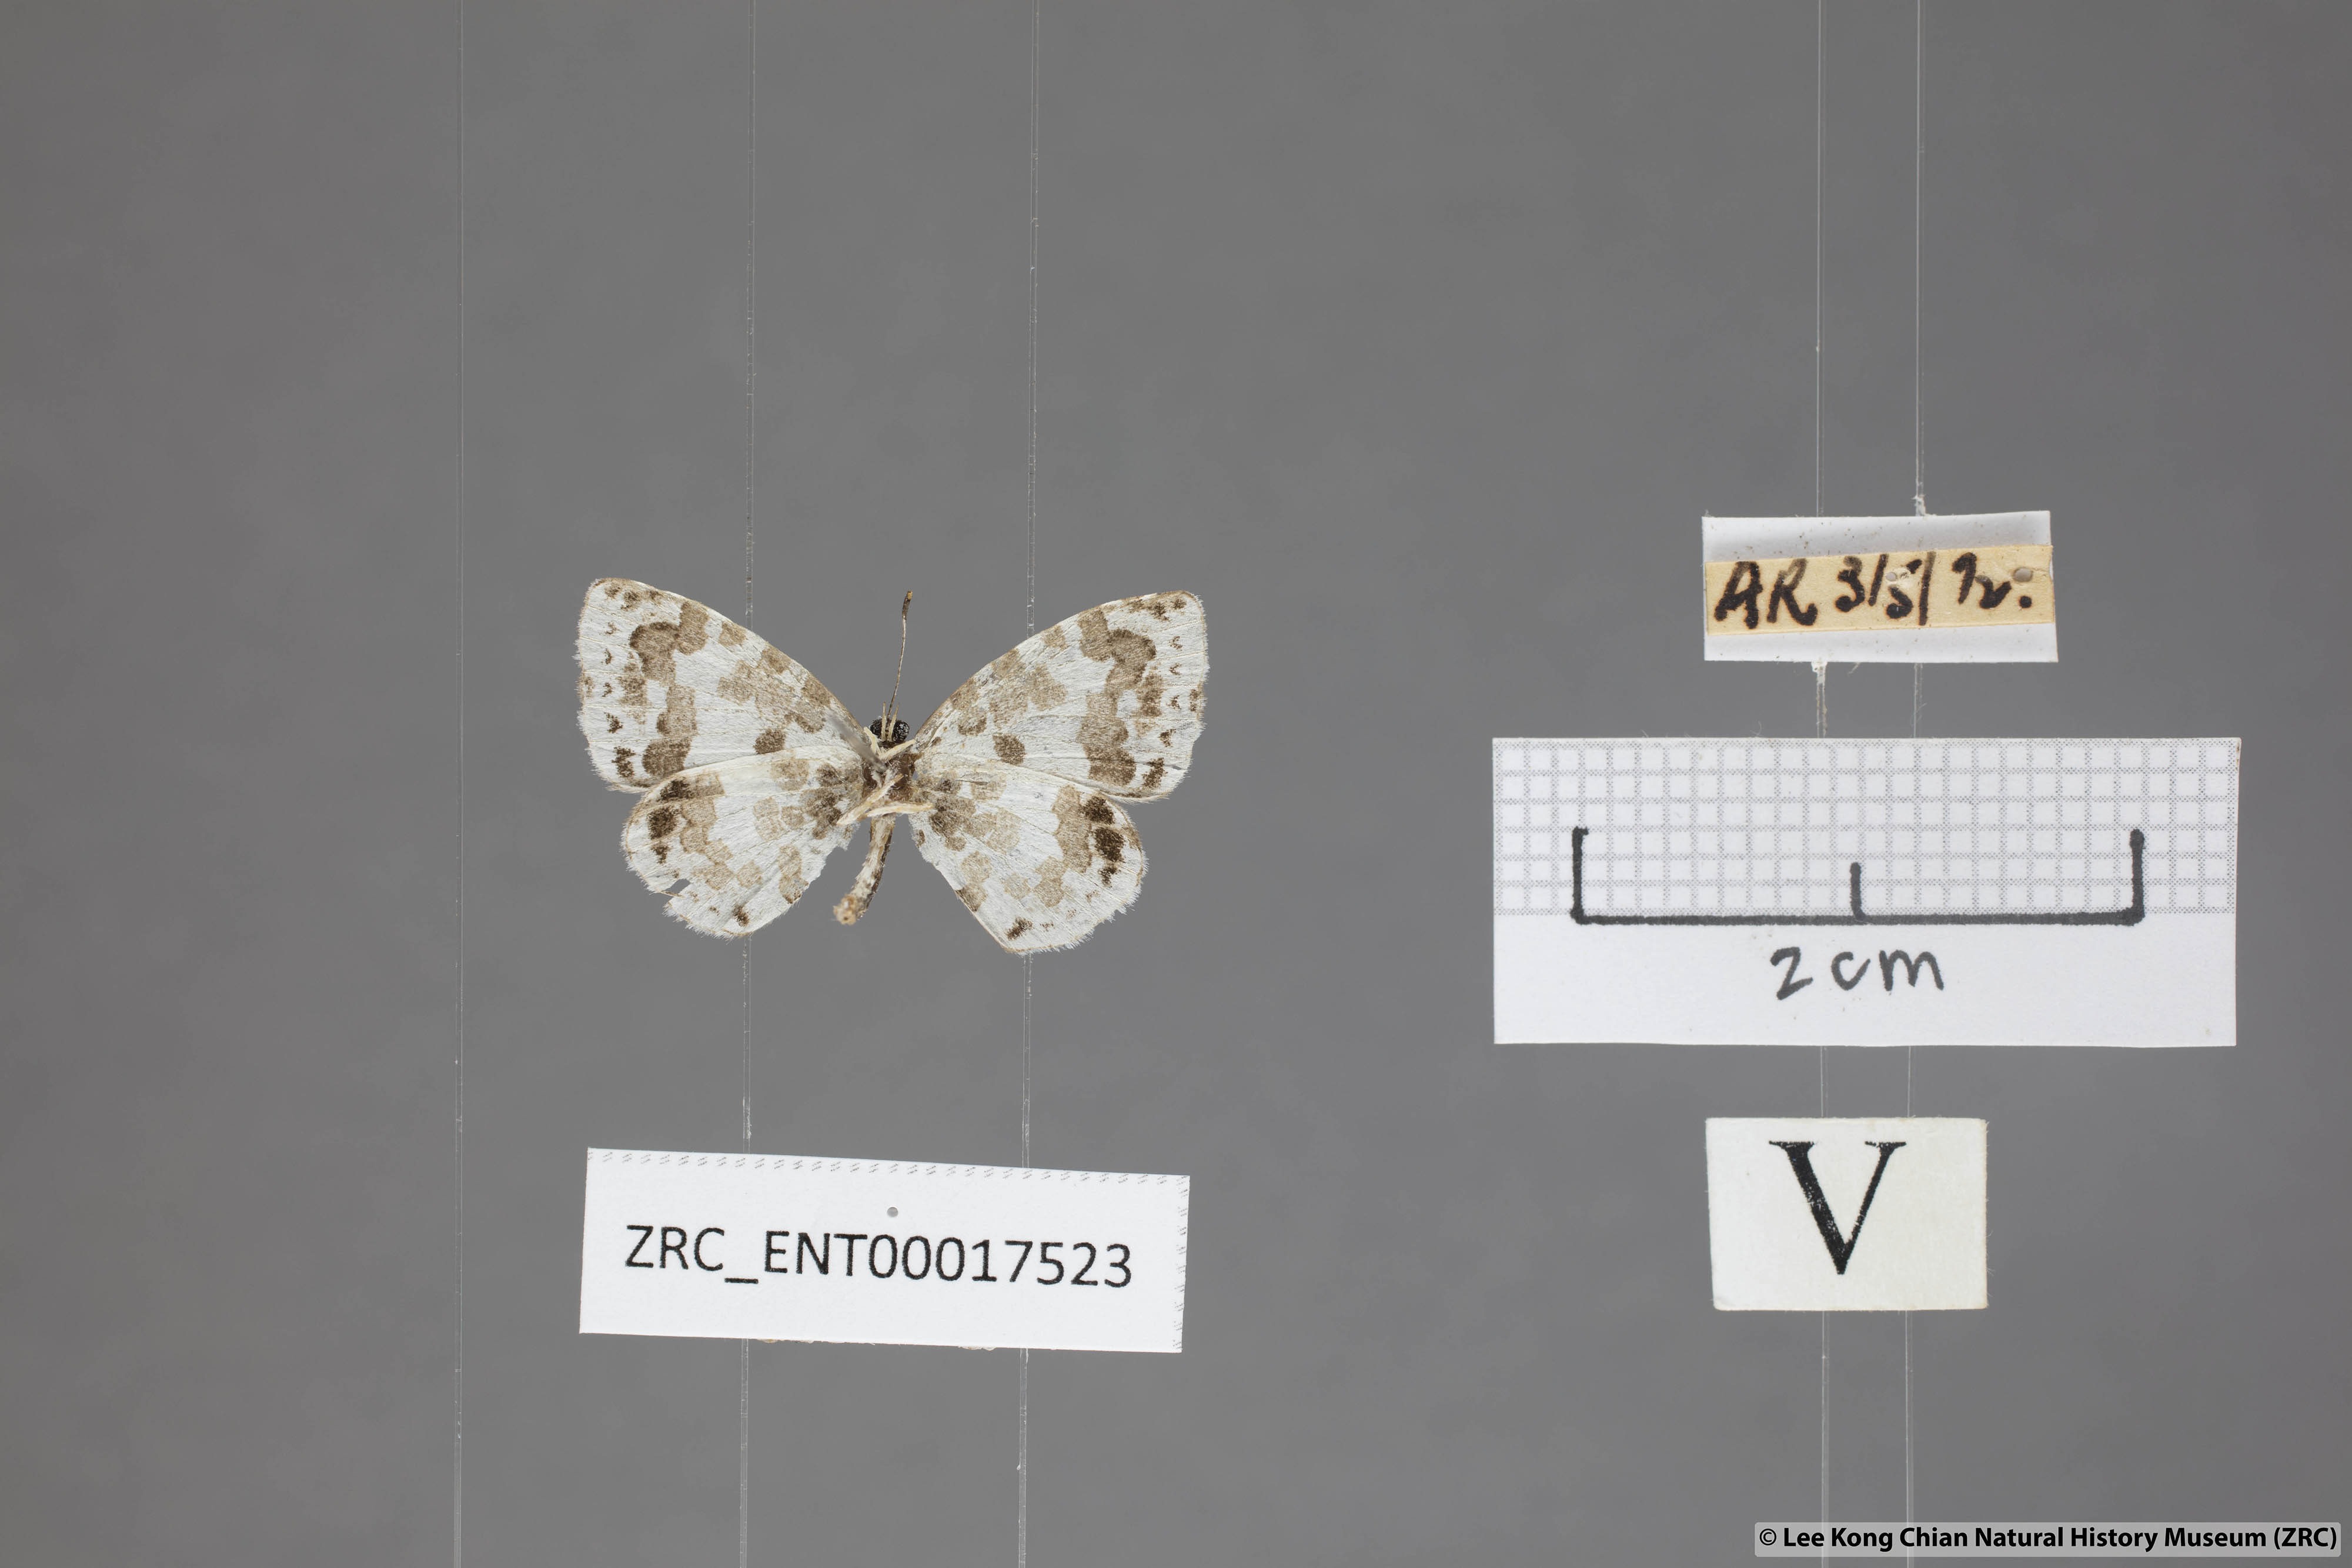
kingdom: Animalia
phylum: Arthropoda
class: Insecta
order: Lepidoptera
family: Lycaenidae
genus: Taraka
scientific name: Taraka mahanetra
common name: Lesser pierrot
